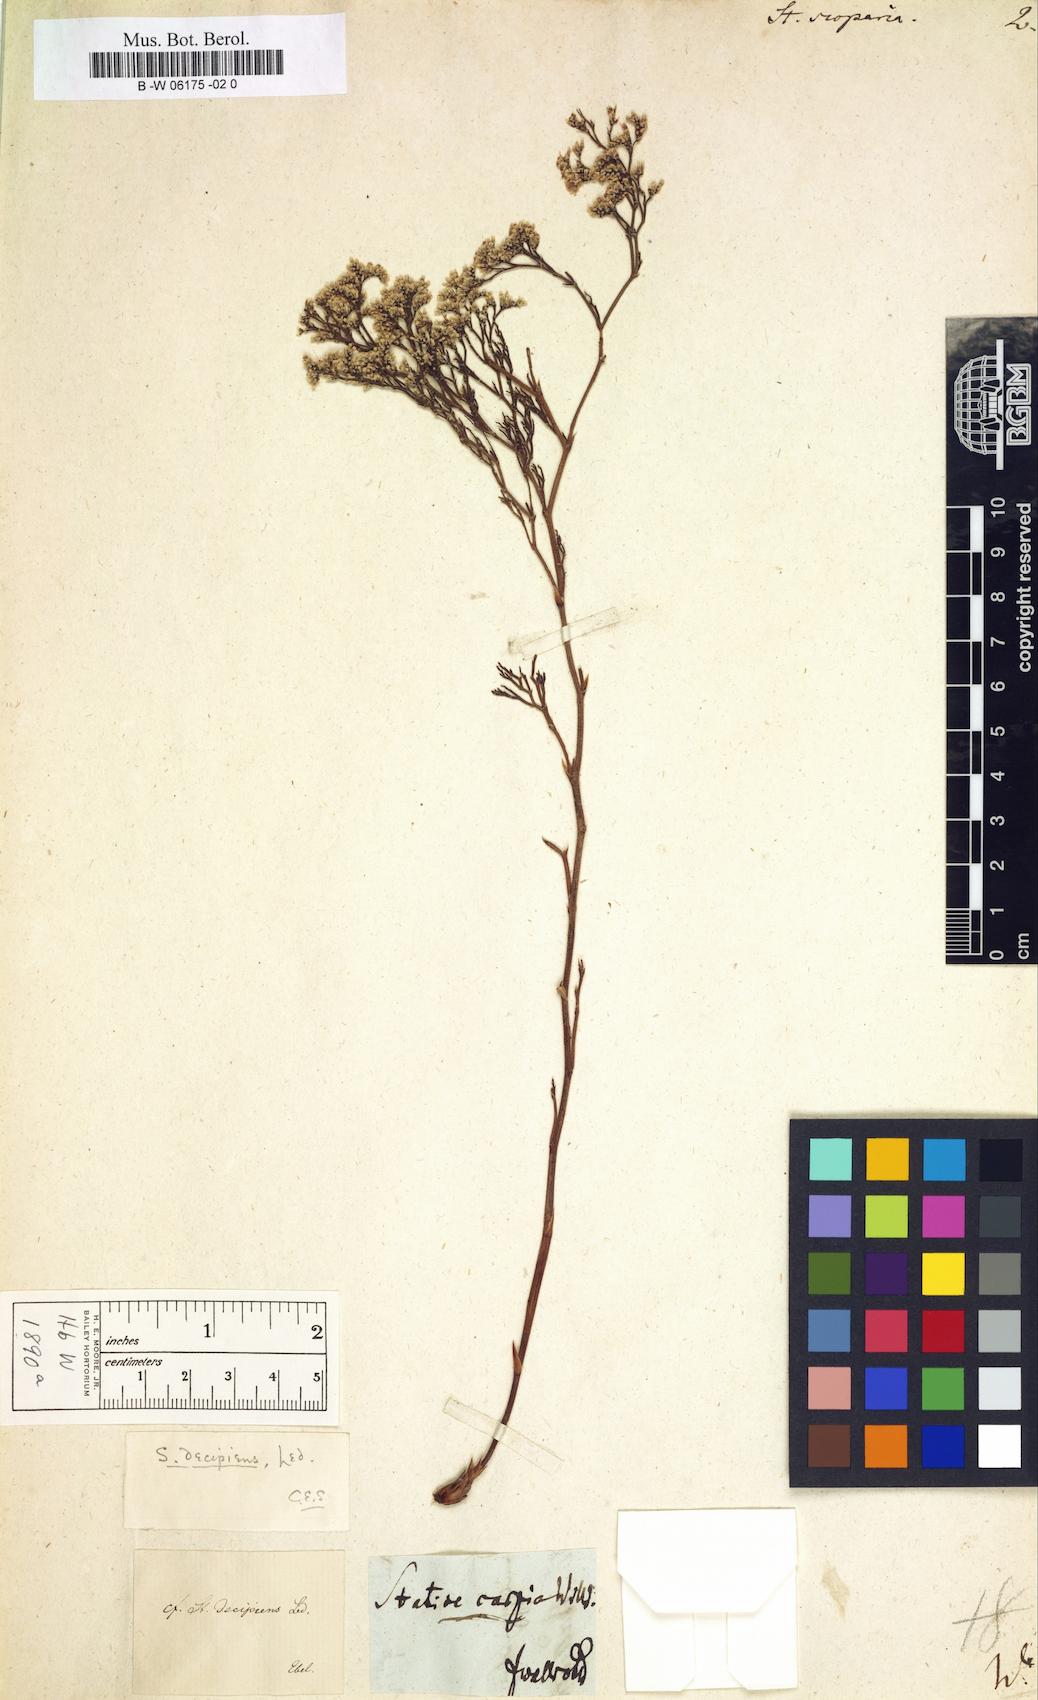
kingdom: Plantae
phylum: Tracheophyta
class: Magnoliopsida
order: Caryophyllales
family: Plumbaginaceae
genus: Limonium
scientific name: Limonium scoparium
